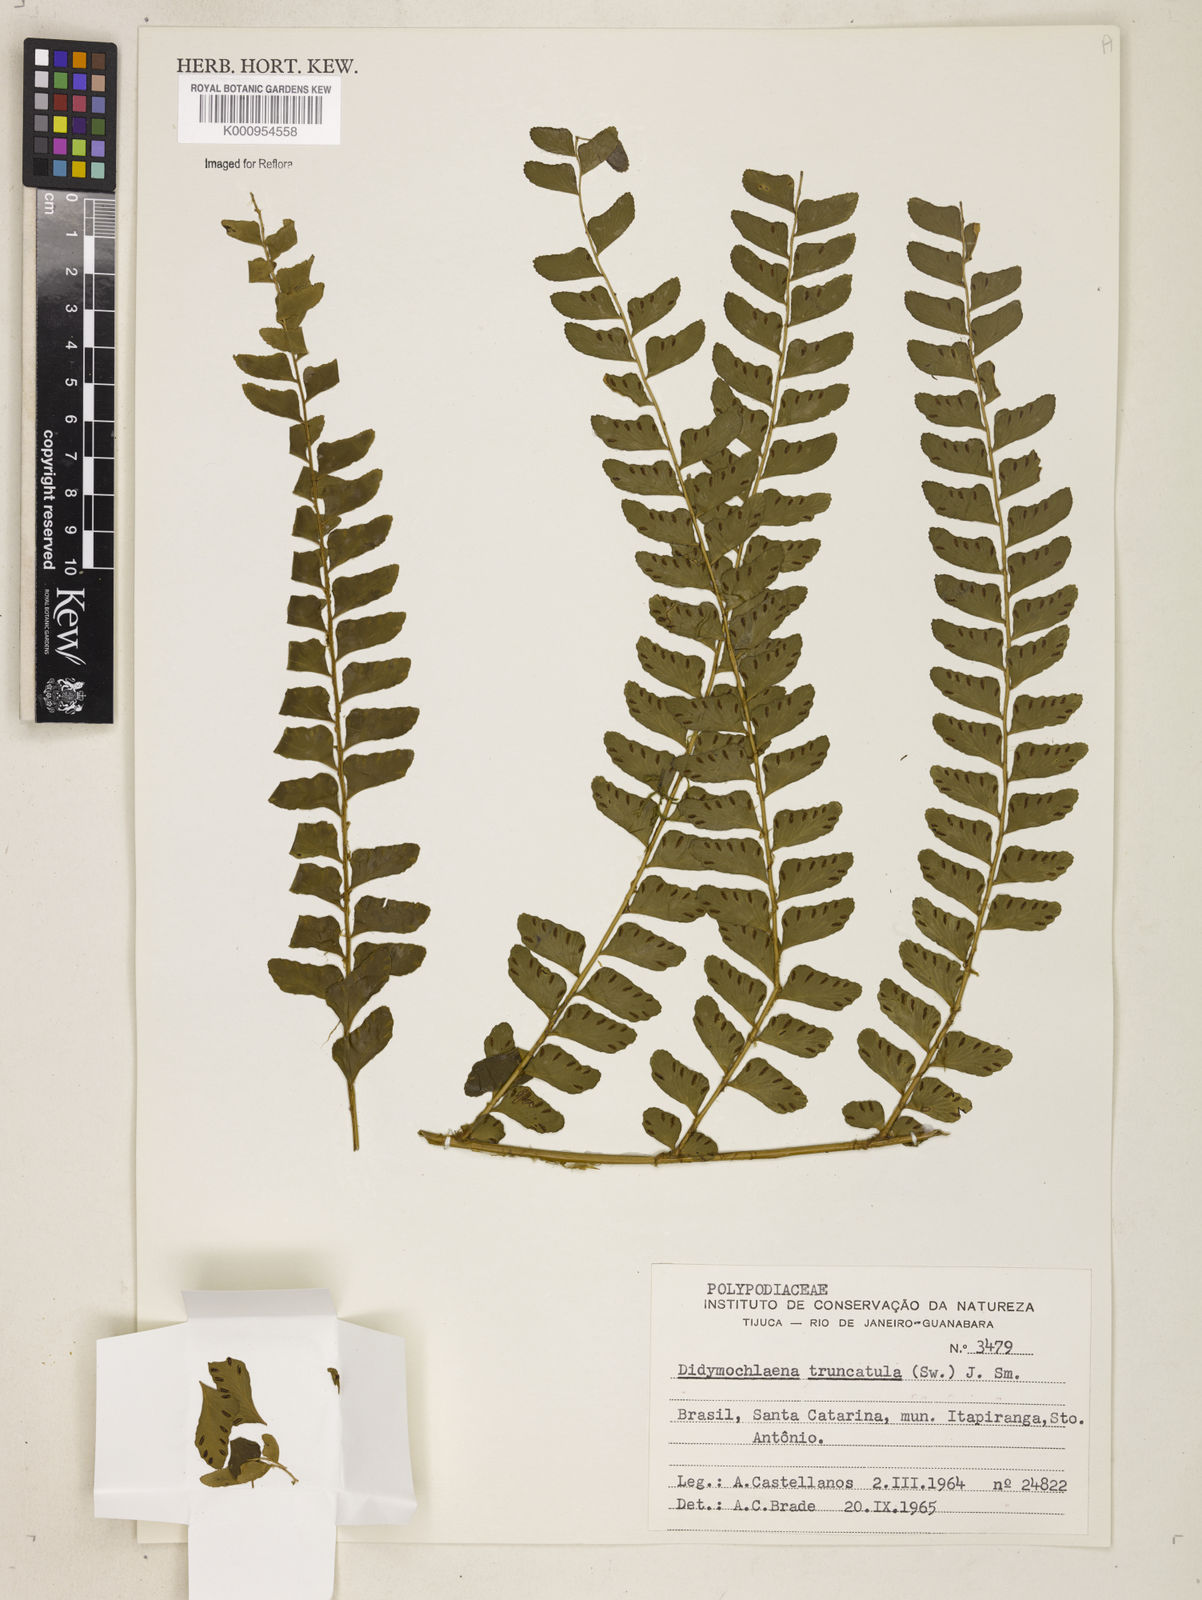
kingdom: Plantae
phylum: Tracheophyta
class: Polypodiopsida
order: Polypodiales
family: Didymochlaenaceae
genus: Didymochlaena
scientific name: Didymochlaena truncatula
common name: Mahogany fern
